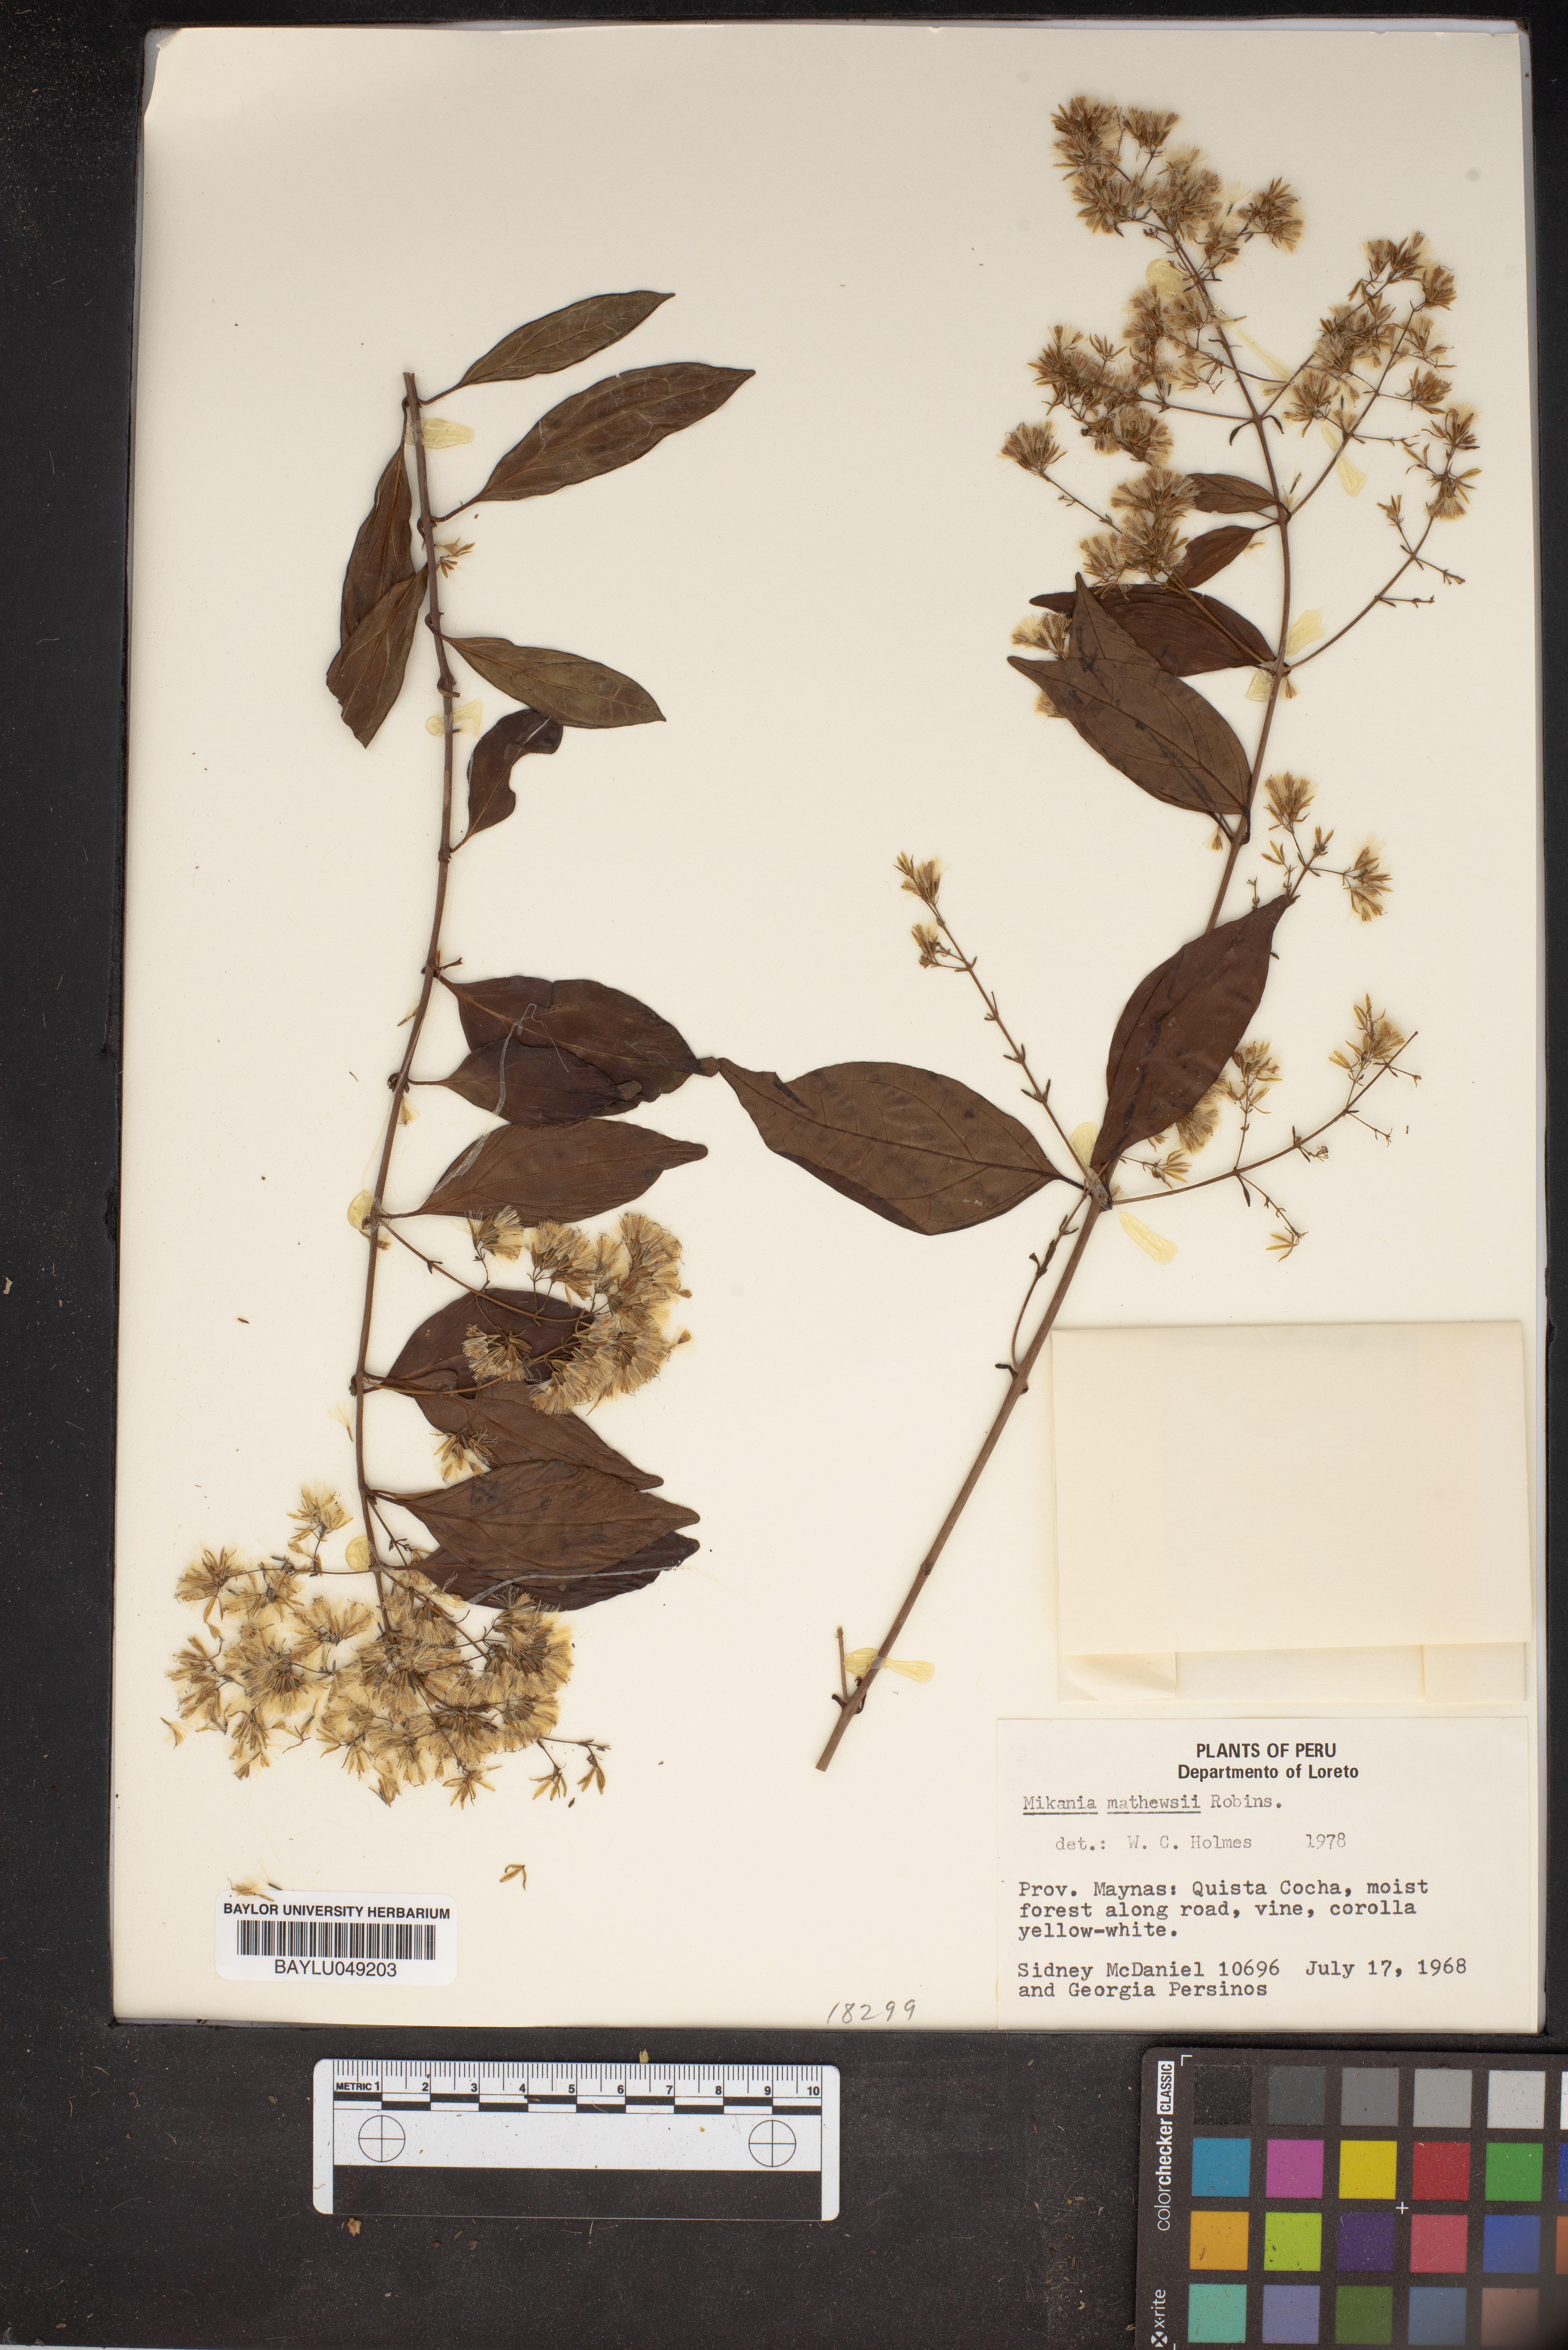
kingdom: Plantae
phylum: Tracheophyta
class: Magnoliopsida
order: Asterales
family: Asteraceae
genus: Mikania
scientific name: Mikania mathewsii
